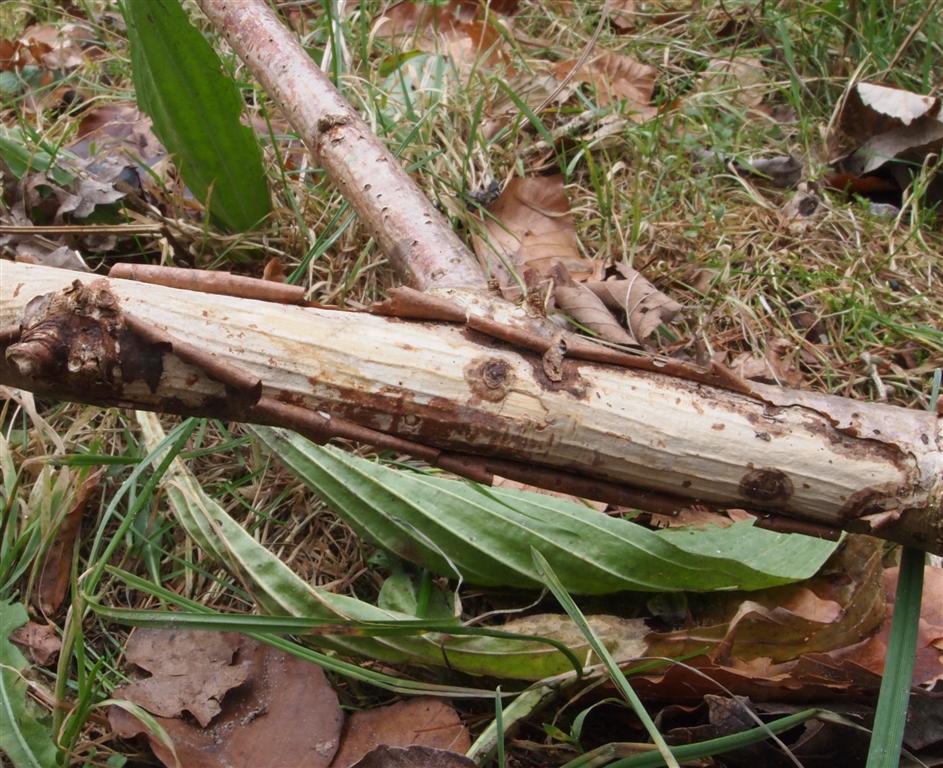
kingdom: Fungi
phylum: Basidiomycota
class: Agaricomycetes
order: Corticiales
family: Vuilleminiaceae
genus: Vuilleminia
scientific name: Vuilleminia coryli
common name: hassel-barksprænger
